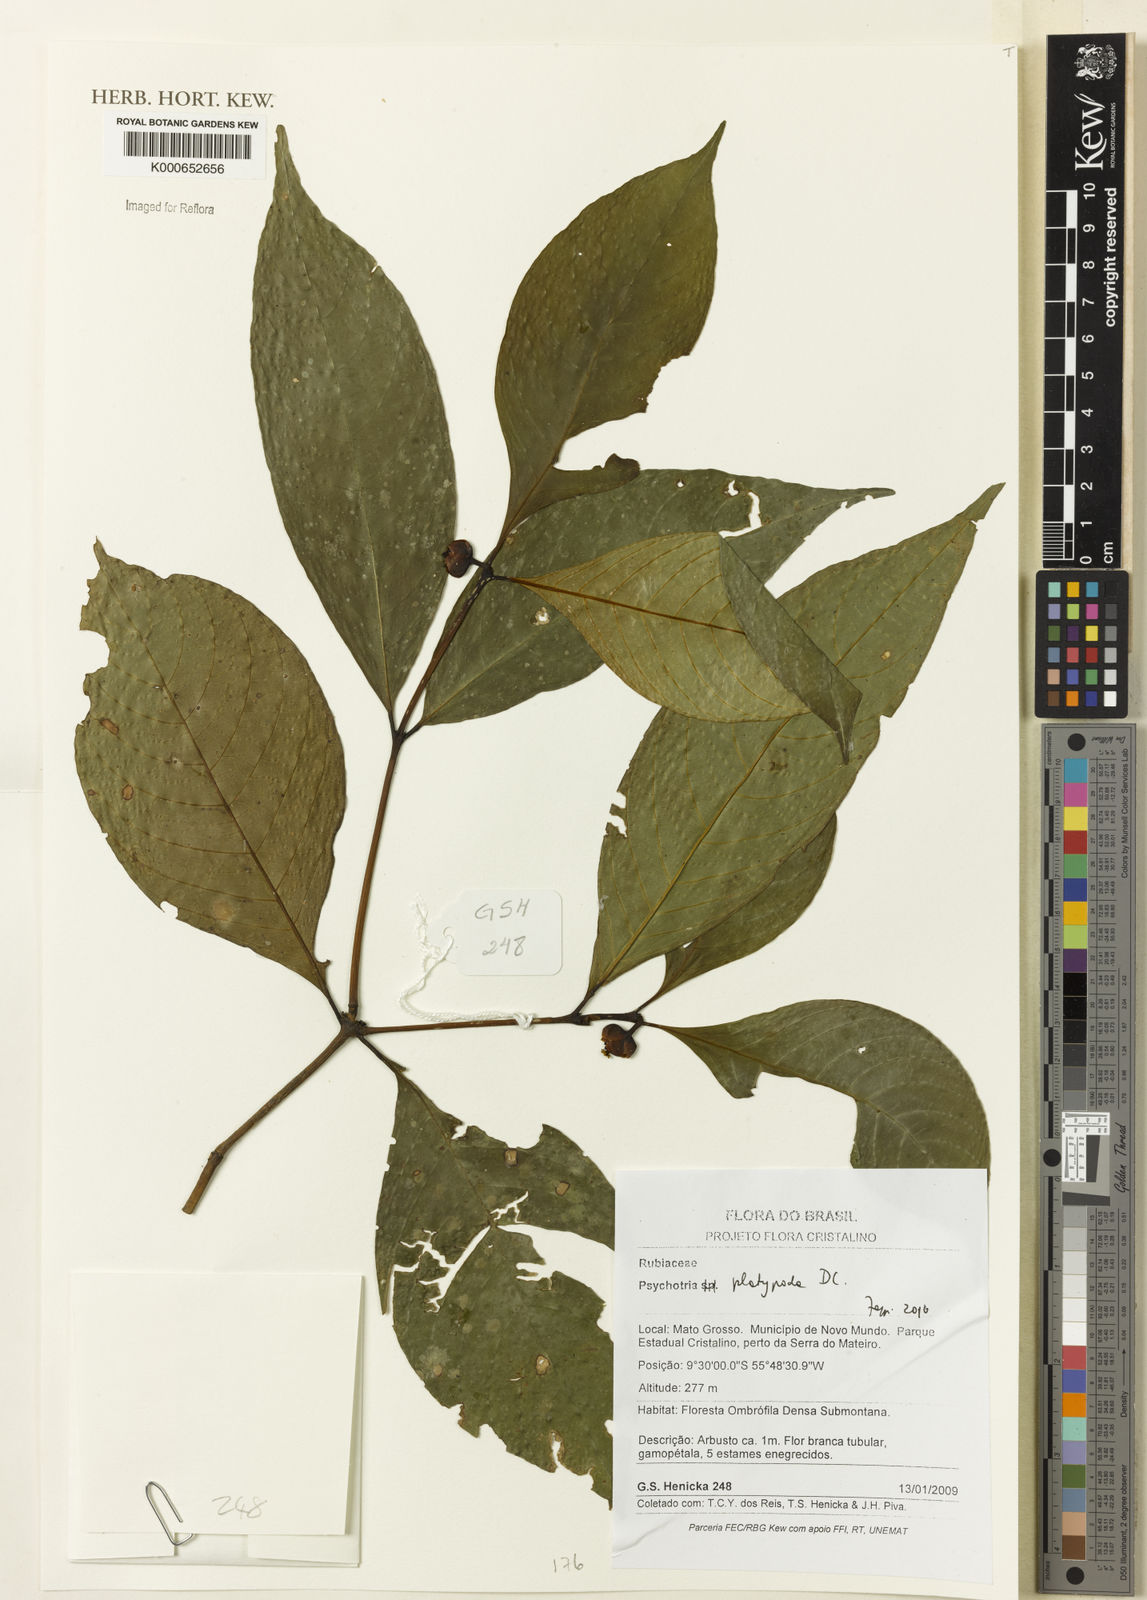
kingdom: Plantae
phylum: Tracheophyta
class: Magnoliopsida
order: Gentianales
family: Rubiaceae
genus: Palicourea
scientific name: Palicourea dichotoma
